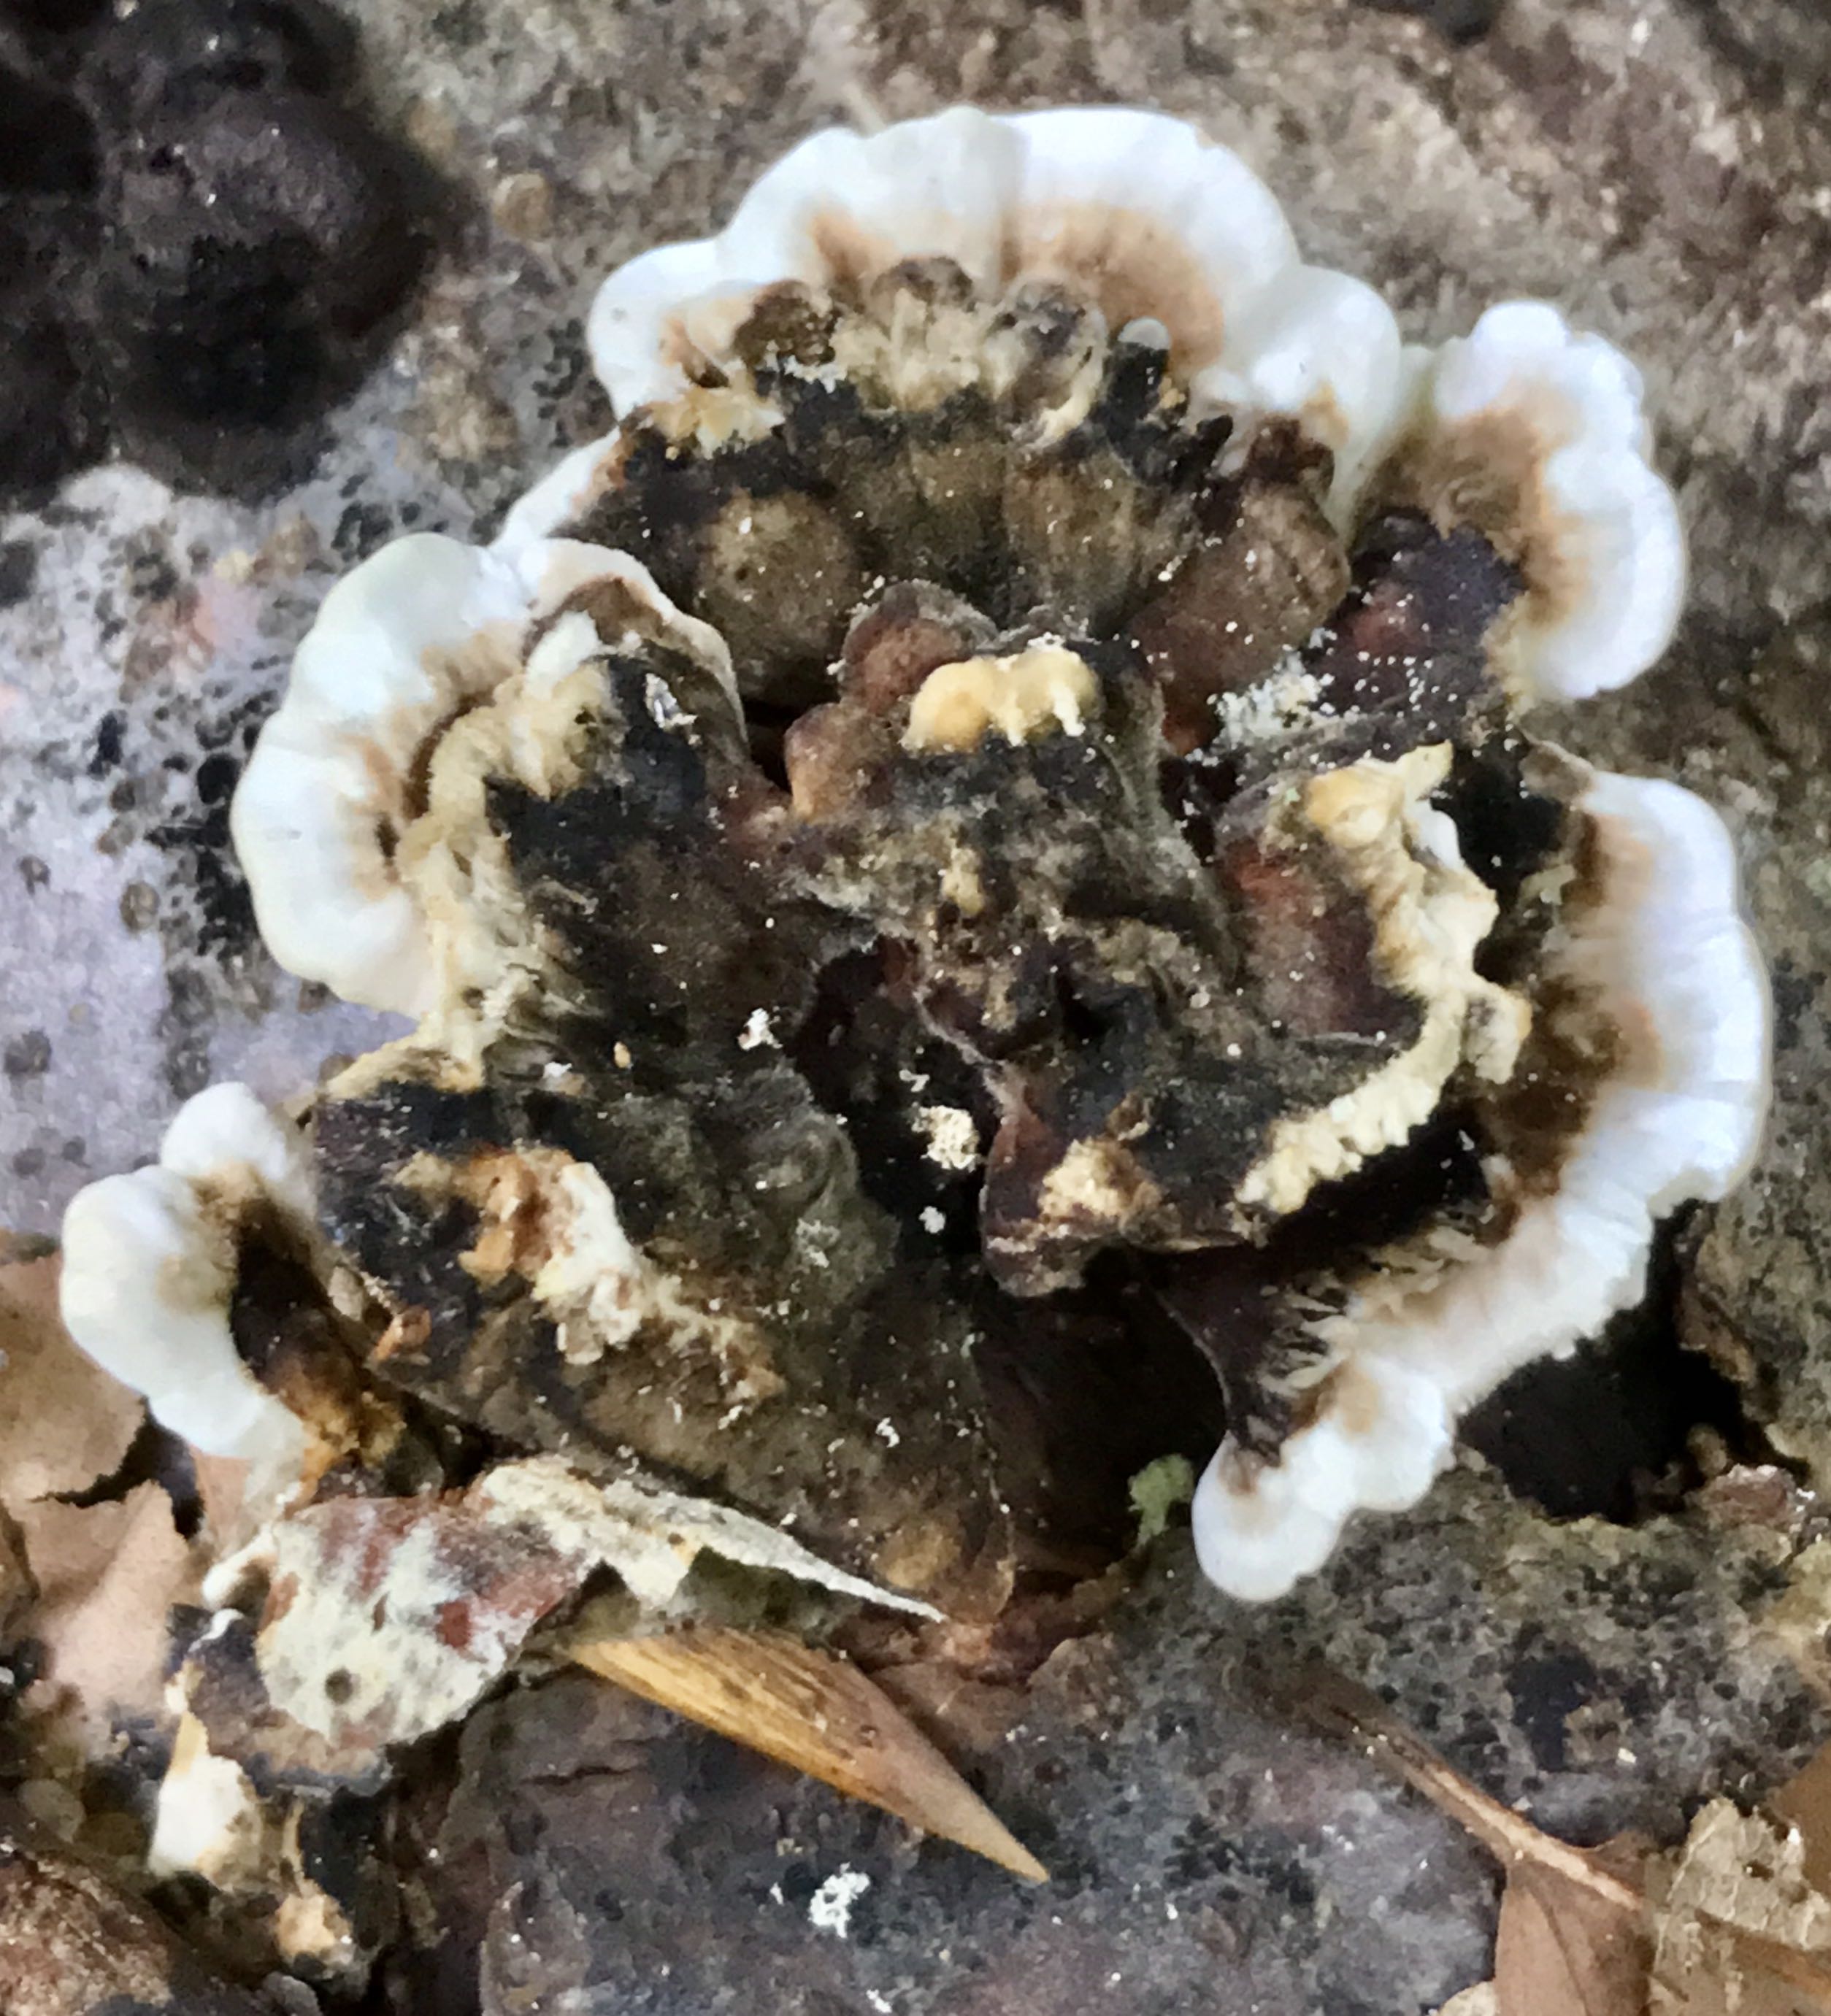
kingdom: Fungi
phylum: Basidiomycota
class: Agaricomycetes
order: Polyporales
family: Polyporaceae
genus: Trametes
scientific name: Trametes versicolor
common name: broget læderporesvamp
